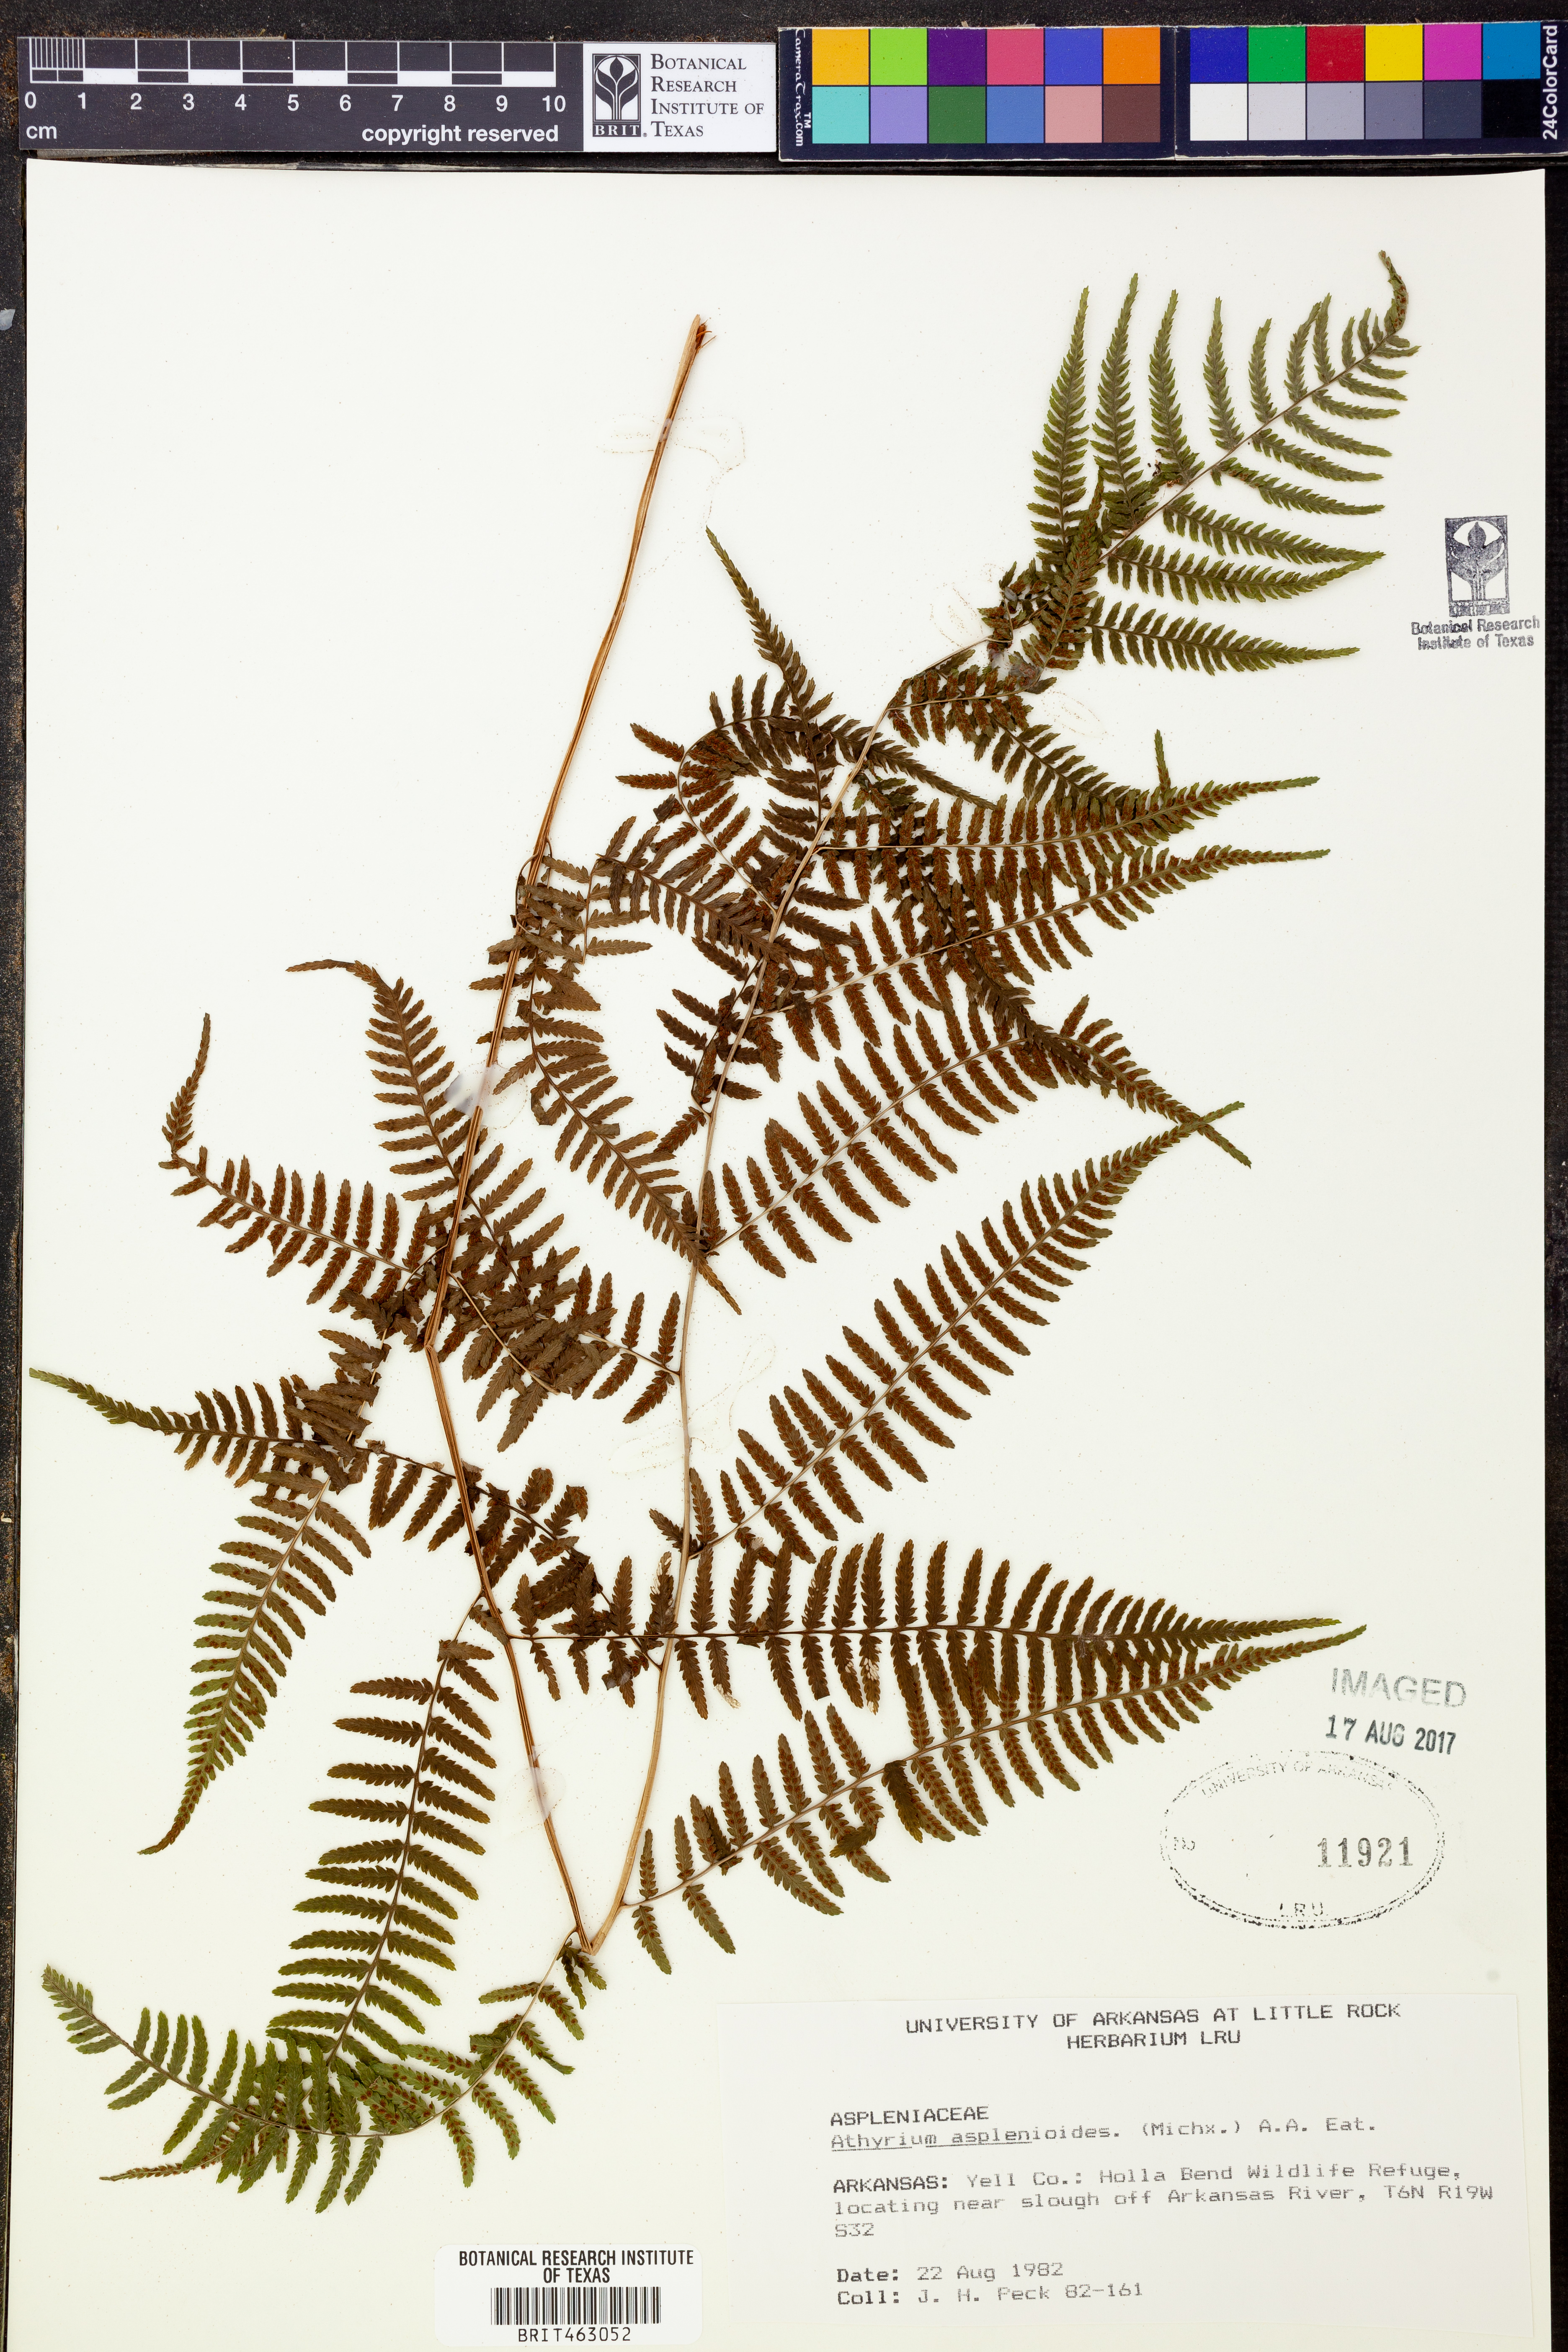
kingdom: Plantae
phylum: Tracheophyta
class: Polypodiopsida
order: Polypodiales
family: Athyriaceae
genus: Athyrium
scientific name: Athyrium asplenioides
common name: Southern lady fern
